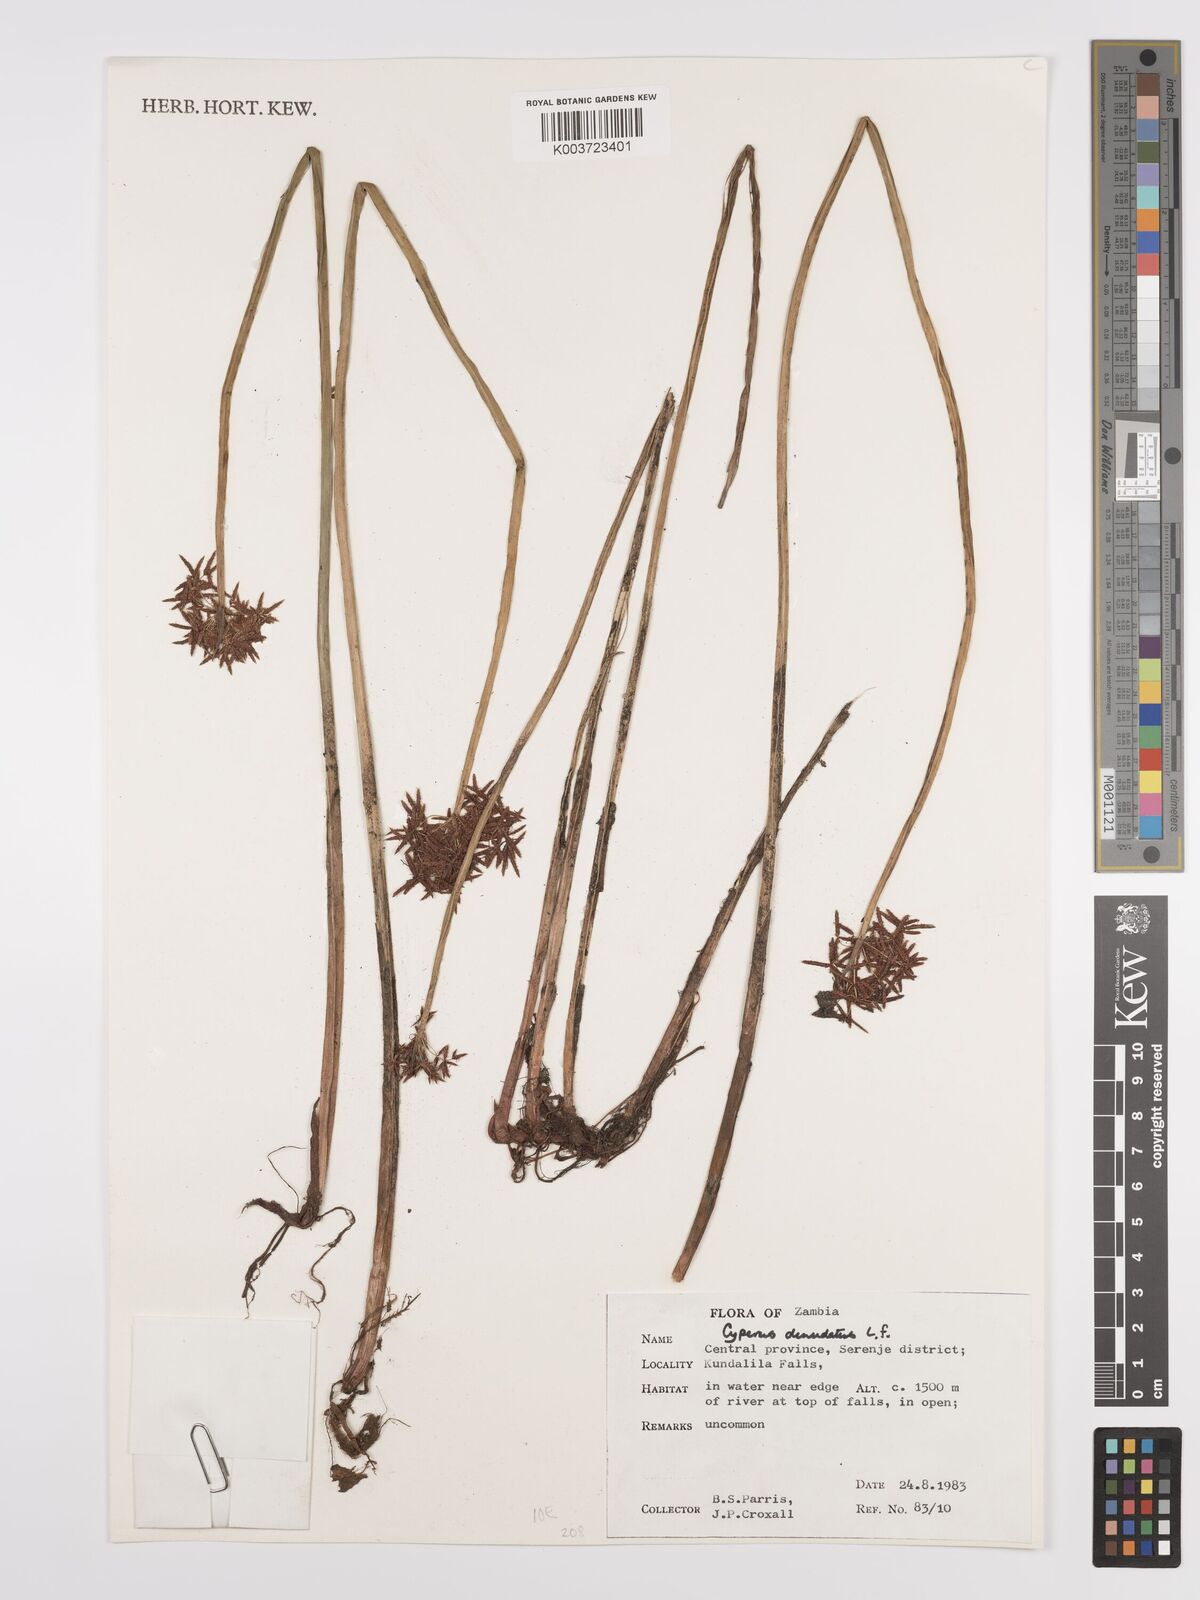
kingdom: Plantae
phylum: Tracheophyta
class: Liliopsida
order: Poales
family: Cyperaceae
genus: Cyperus
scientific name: Cyperus denudatus
